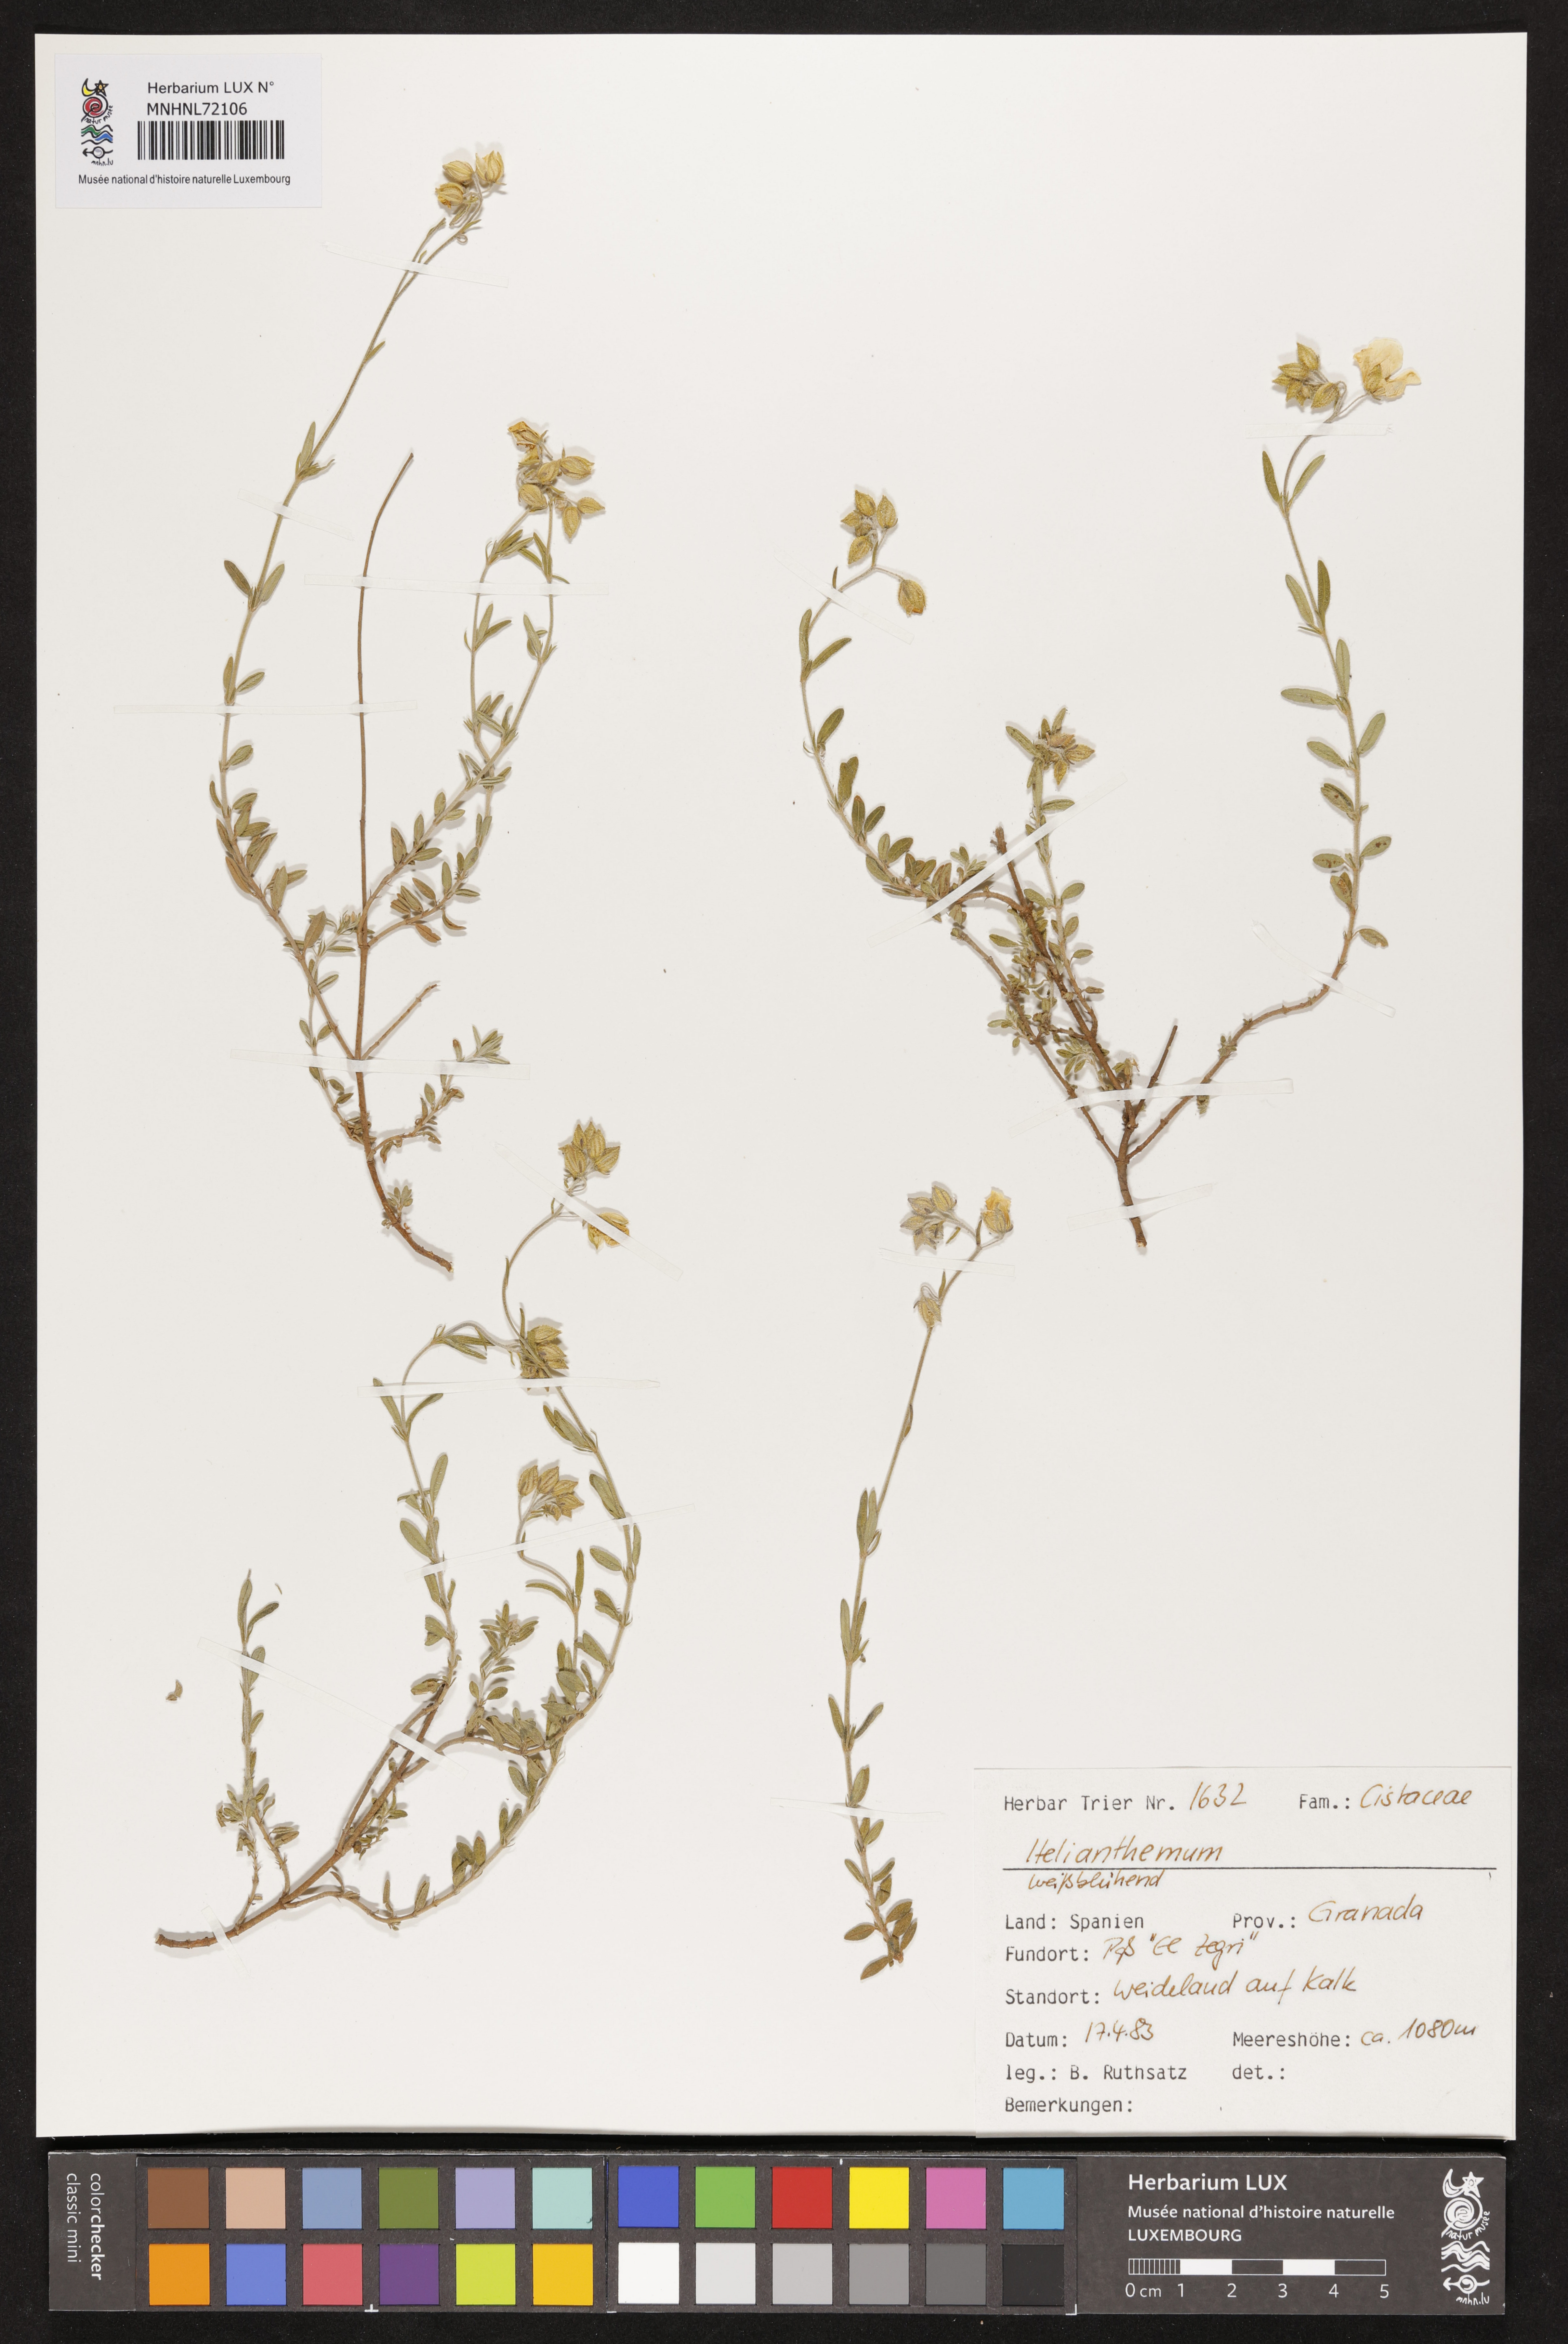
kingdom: Plantae
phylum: Tracheophyta
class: Magnoliopsida
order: Malvales
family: Cistaceae
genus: Helianthemum
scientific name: Helianthemum
